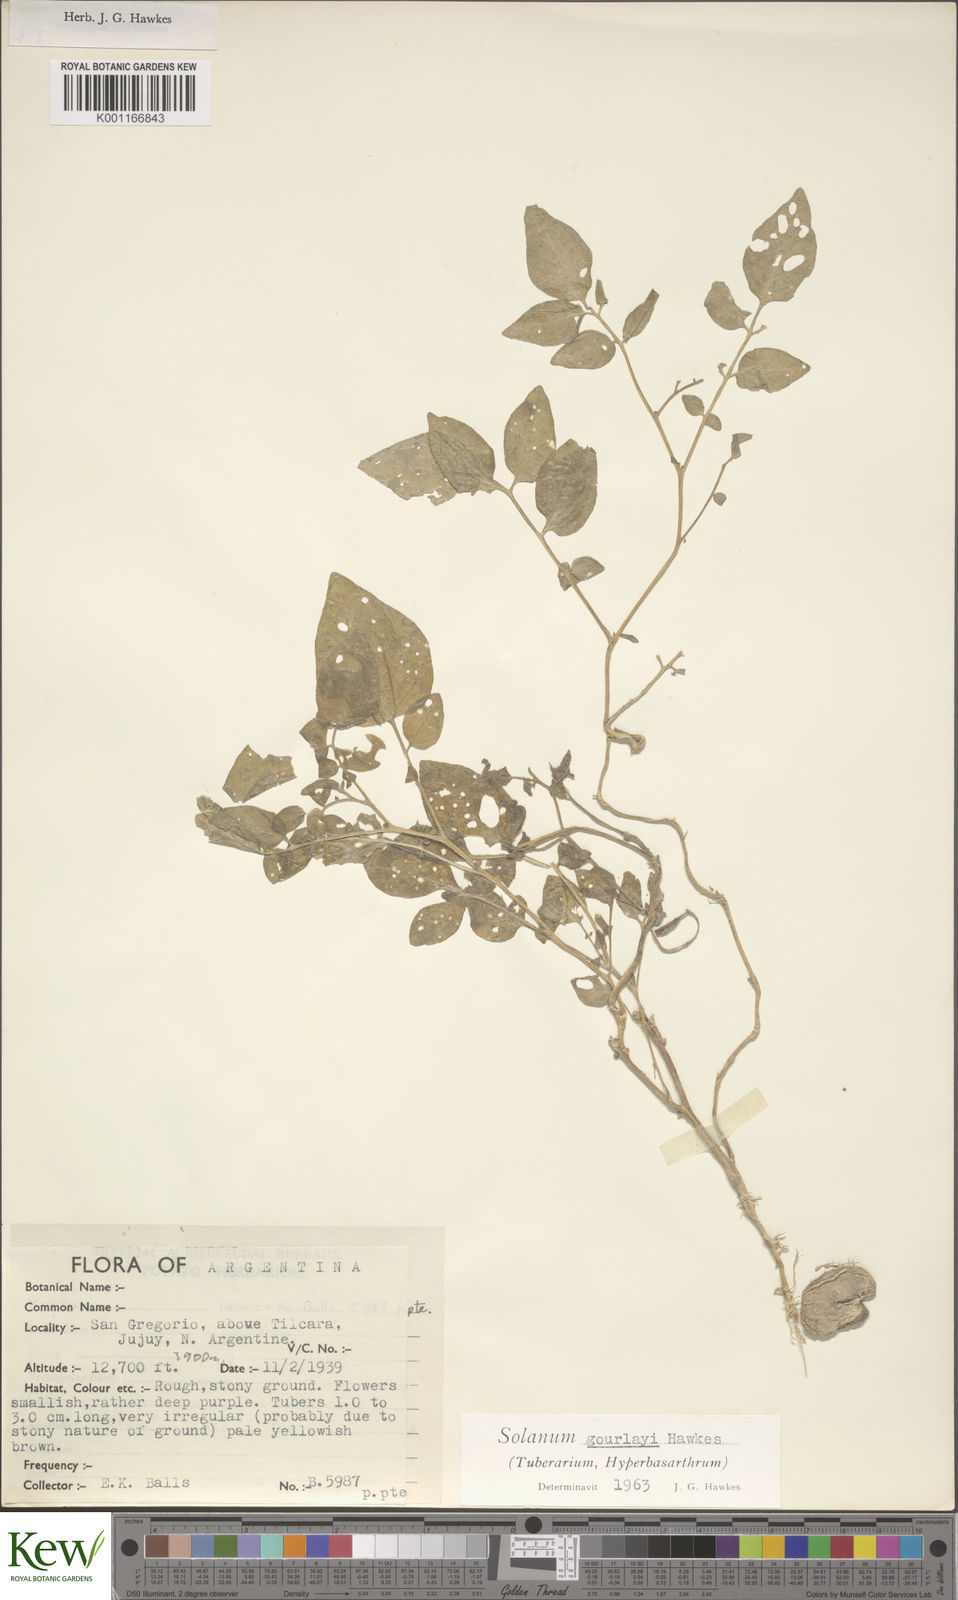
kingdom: Plantae
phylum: Tracheophyta
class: Magnoliopsida
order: Solanales
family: Solanaceae
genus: Solanum
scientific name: Solanum brevicaule
